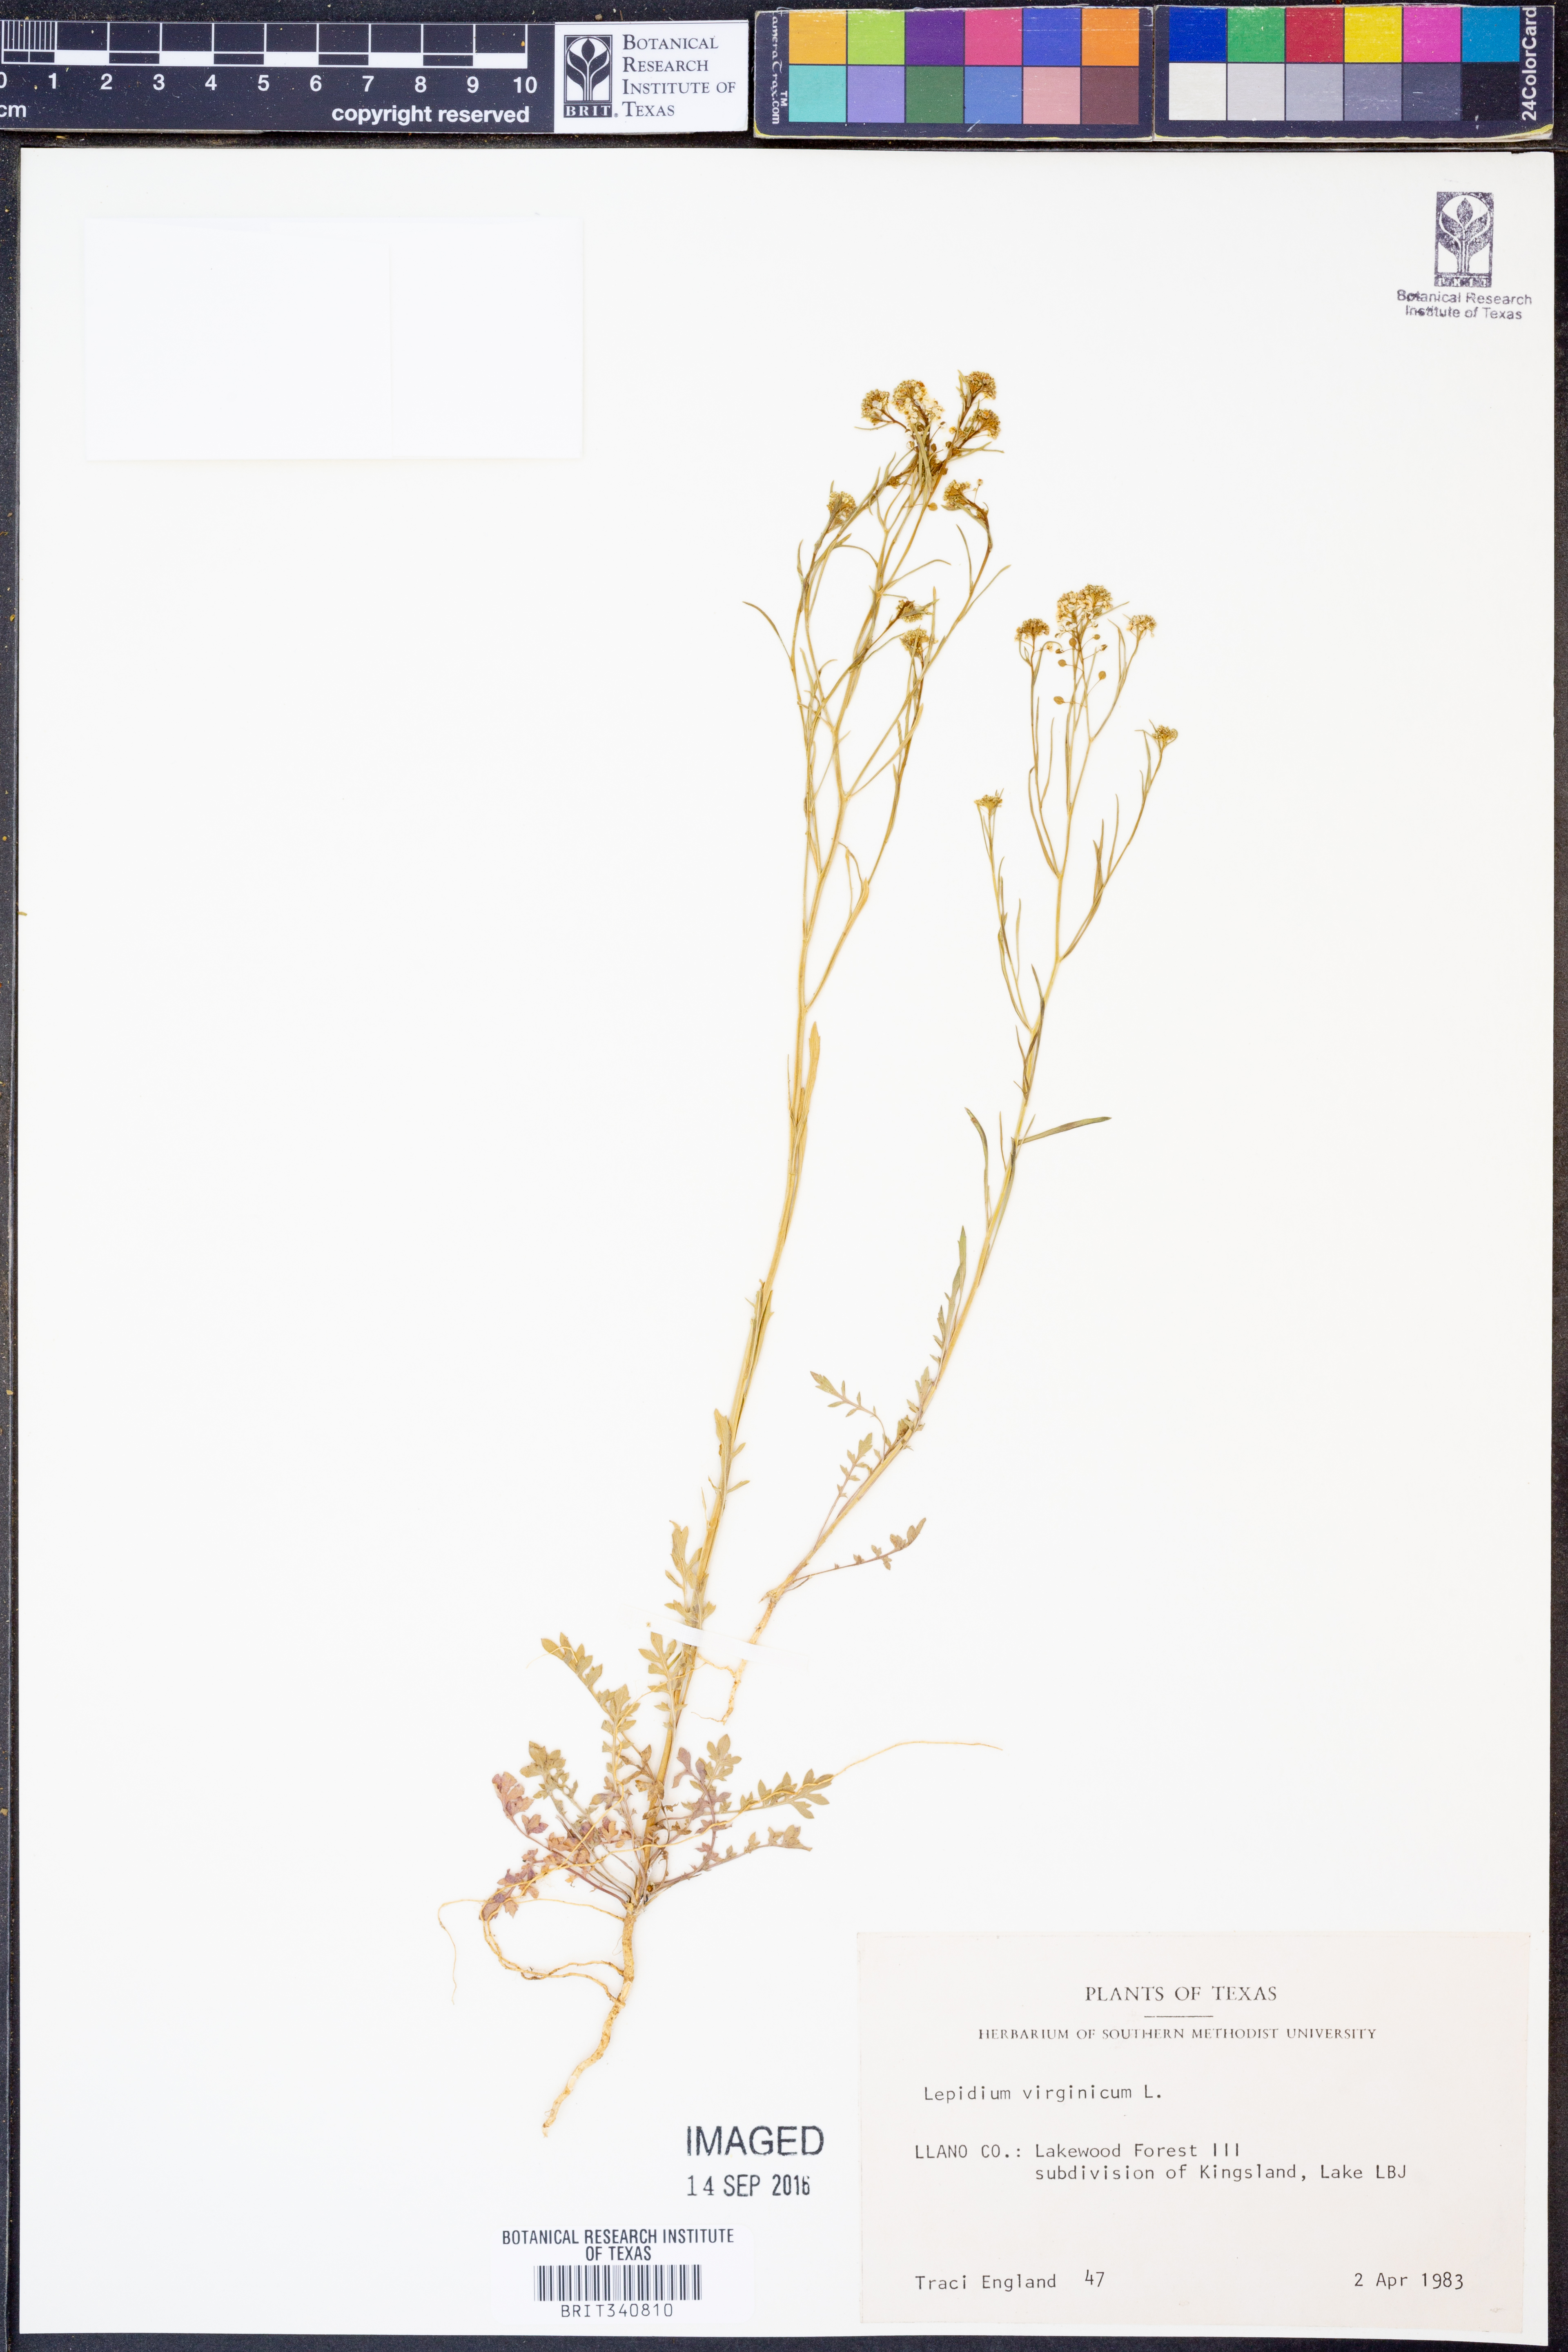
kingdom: Plantae
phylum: Tracheophyta
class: Magnoliopsida
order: Brassicales
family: Brassicaceae
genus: Lepidium
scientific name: Lepidium virginicum
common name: Least pepperwort
